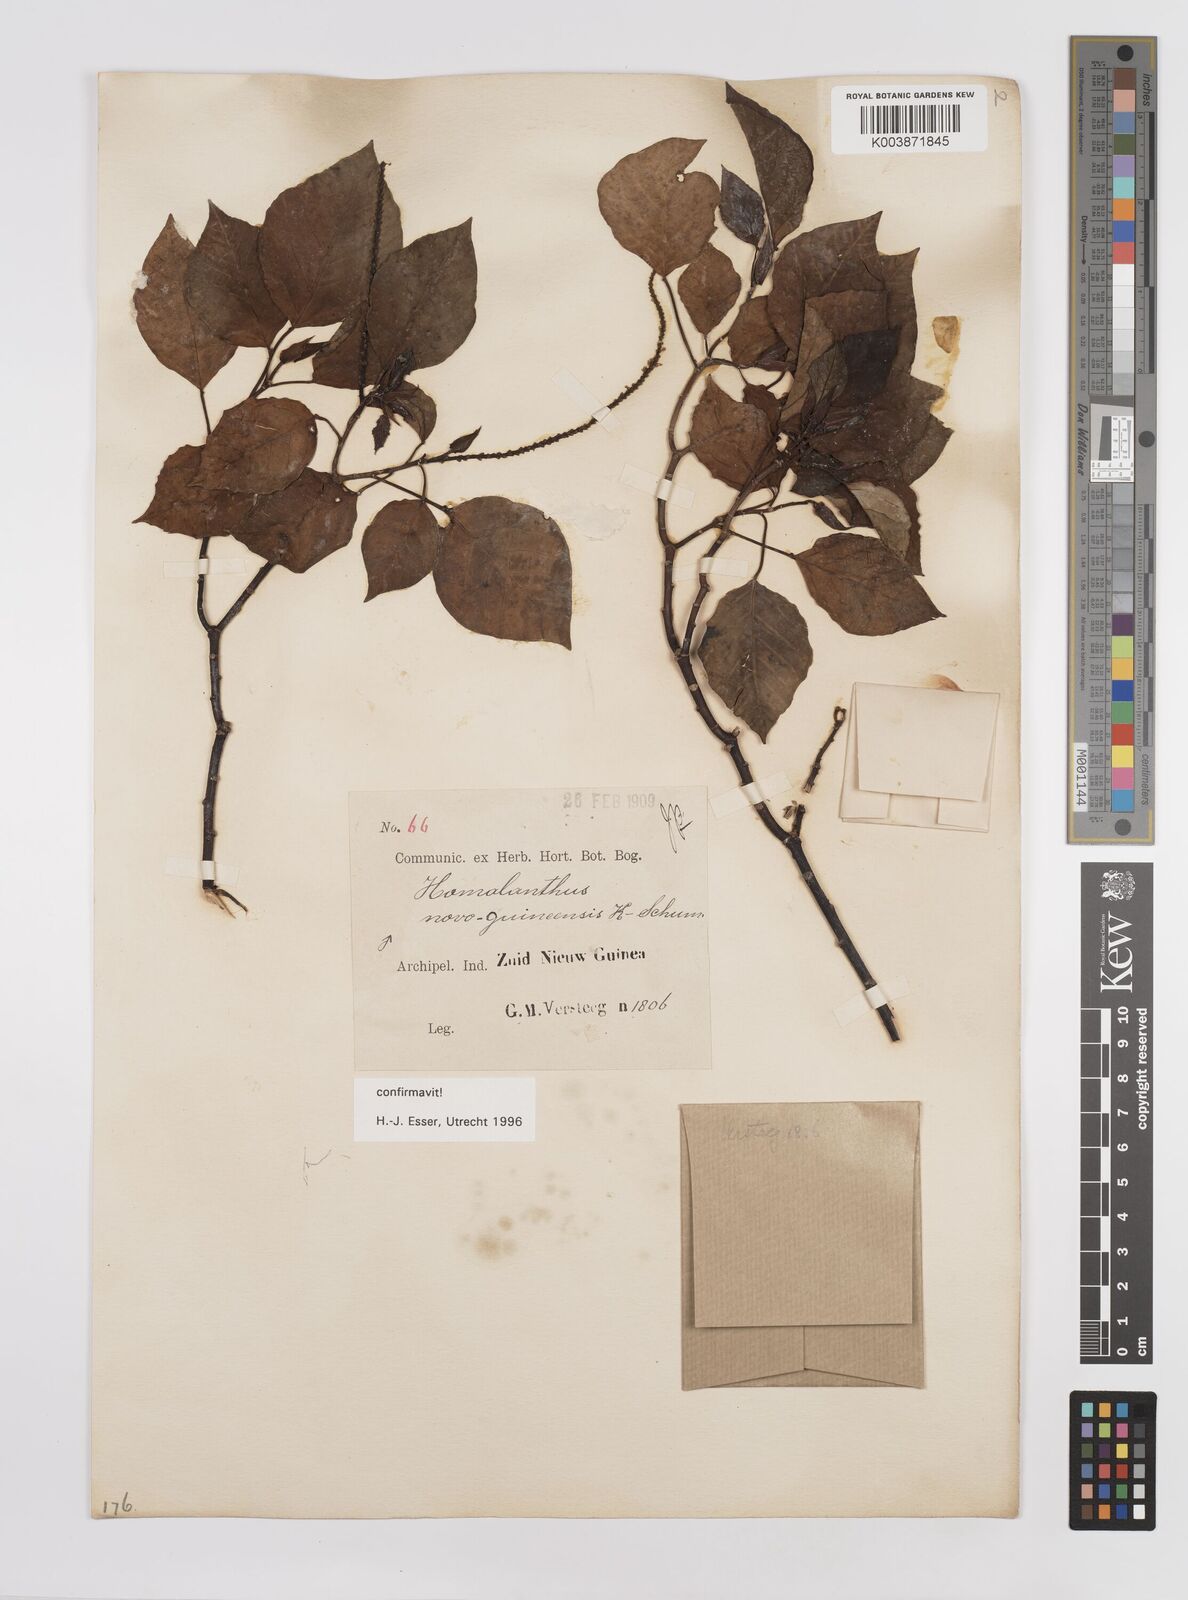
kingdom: Plantae
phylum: Tracheophyta
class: Magnoliopsida
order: Malpighiales
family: Euphorbiaceae
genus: Homalanthus
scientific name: Homalanthus novoguineensis
